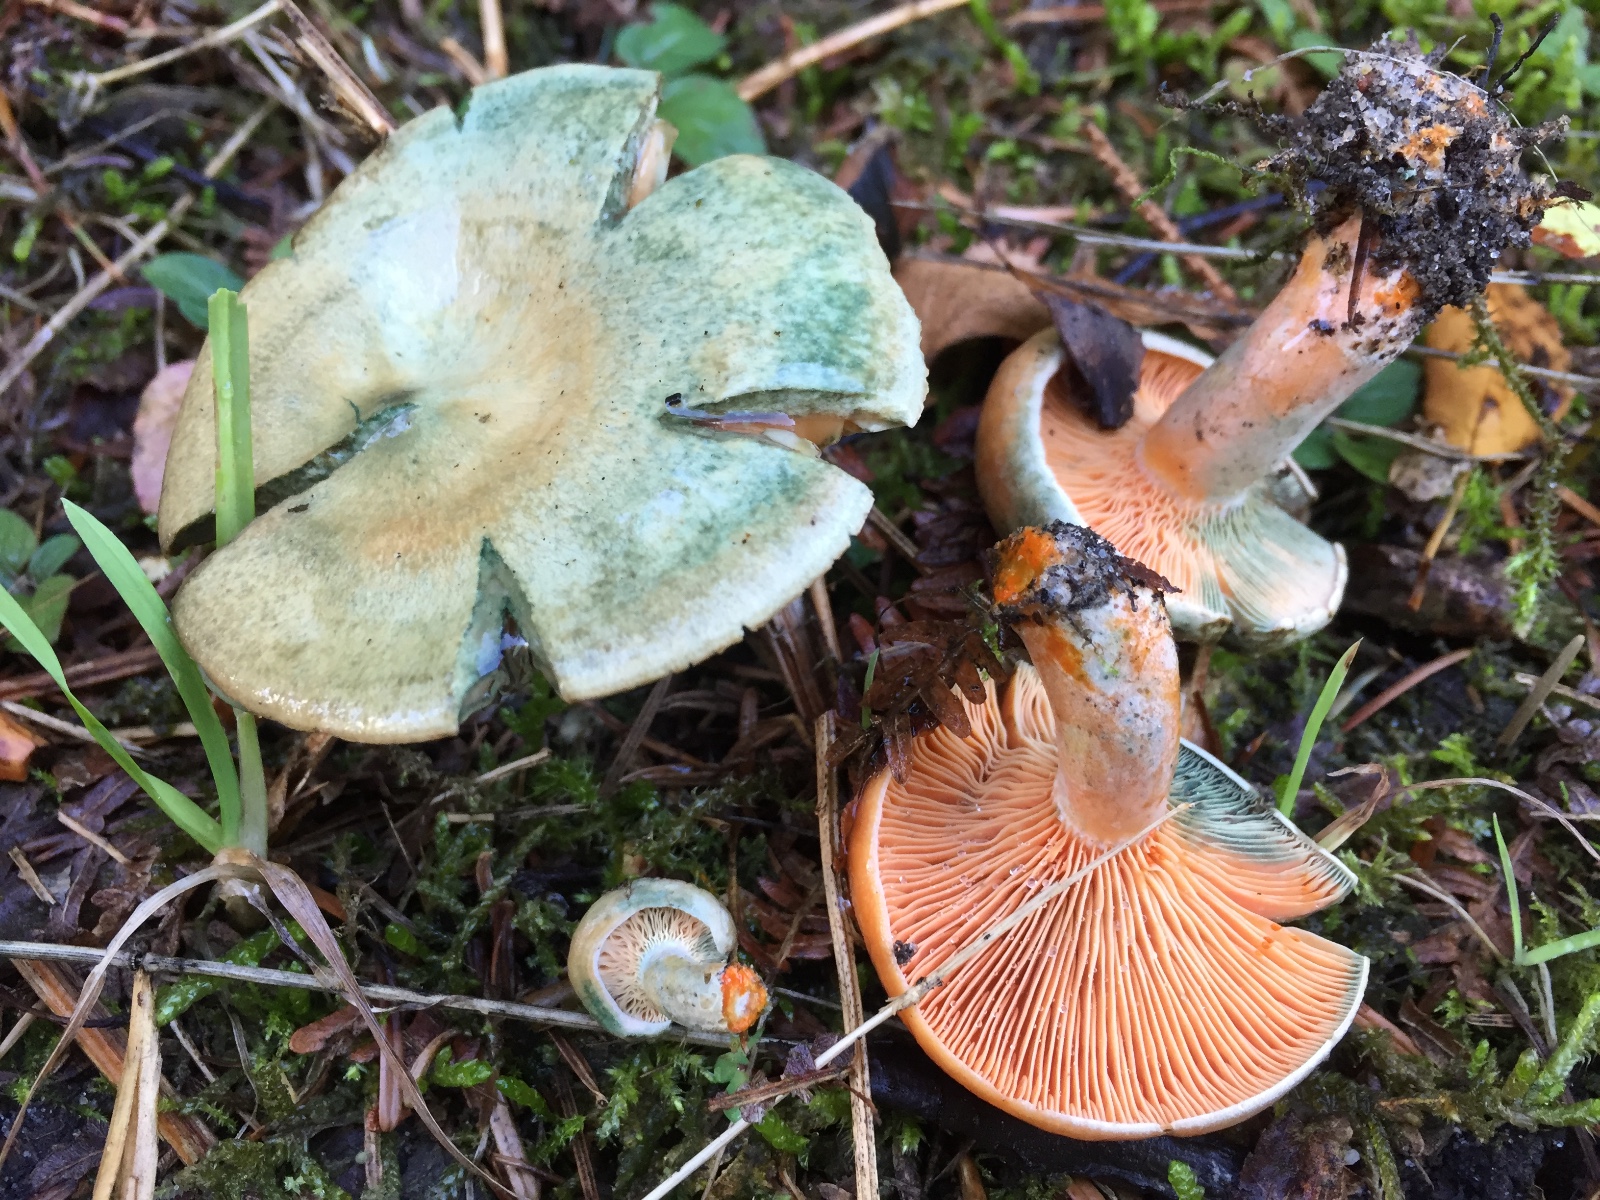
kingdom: Fungi
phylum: Basidiomycota
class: Agaricomycetes
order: Russulales
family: Russulaceae
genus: Lactarius
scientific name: Lactarius deterrimus
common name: gran-mælkehat
